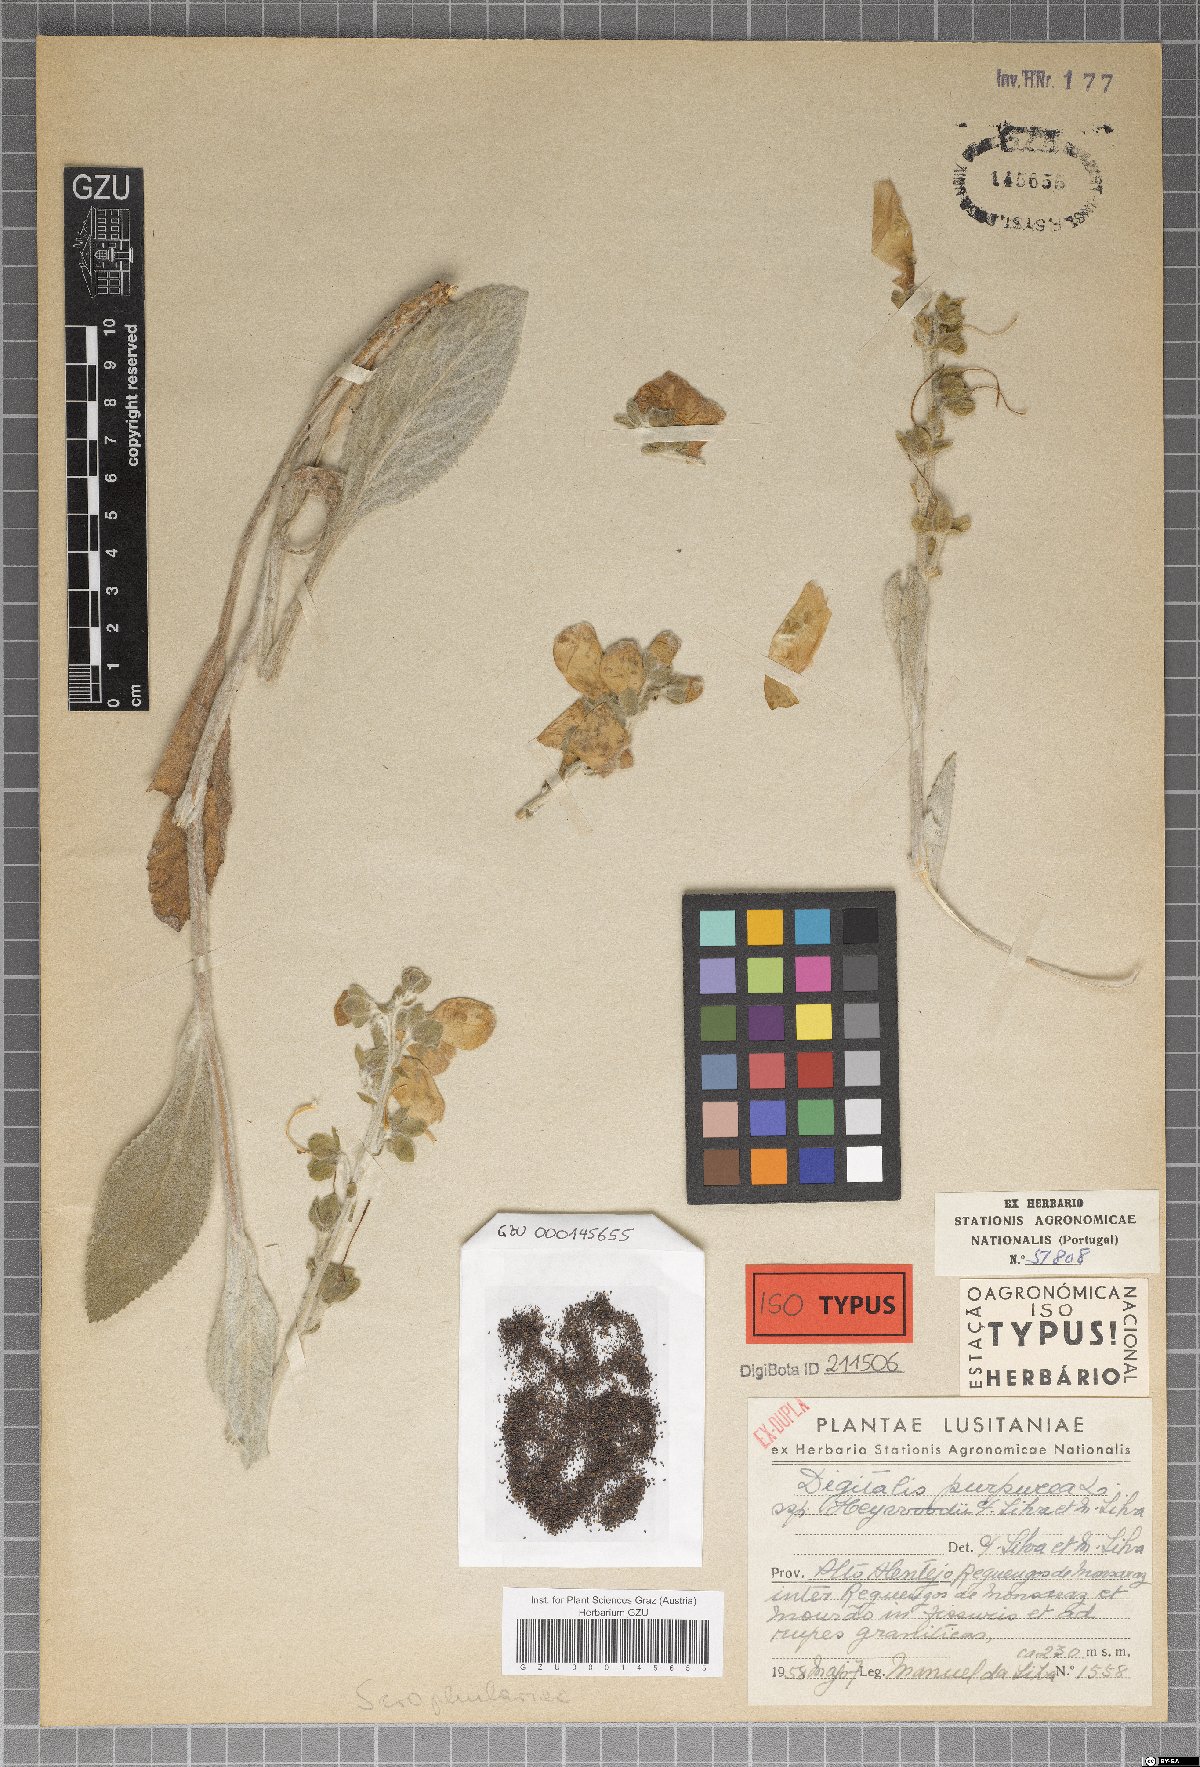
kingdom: Plantae
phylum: Tracheophyta
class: Magnoliopsida
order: Lamiales
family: Plantaginaceae
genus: Digitalis
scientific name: Digitalis mariana
